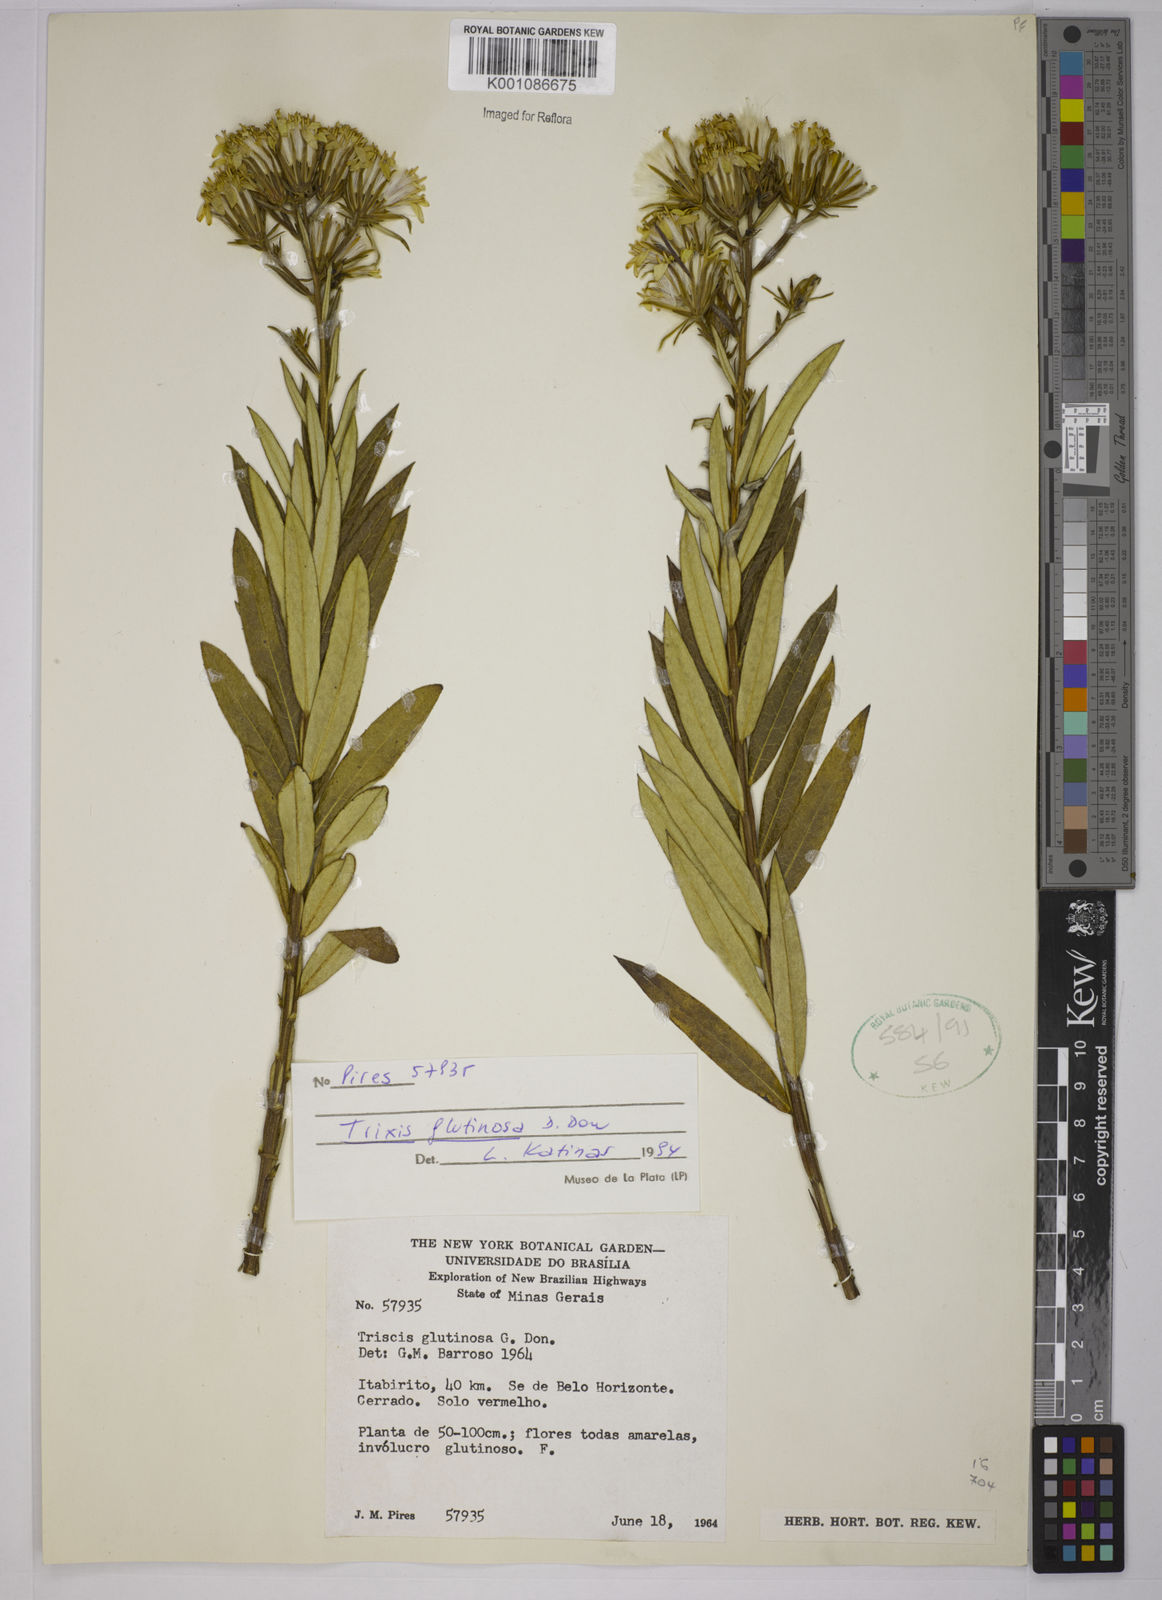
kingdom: Plantae
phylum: Tracheophyta
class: Magnoliopsida
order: Asterales
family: Asteraceae
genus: Trixis
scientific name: Trixis glutinosa
